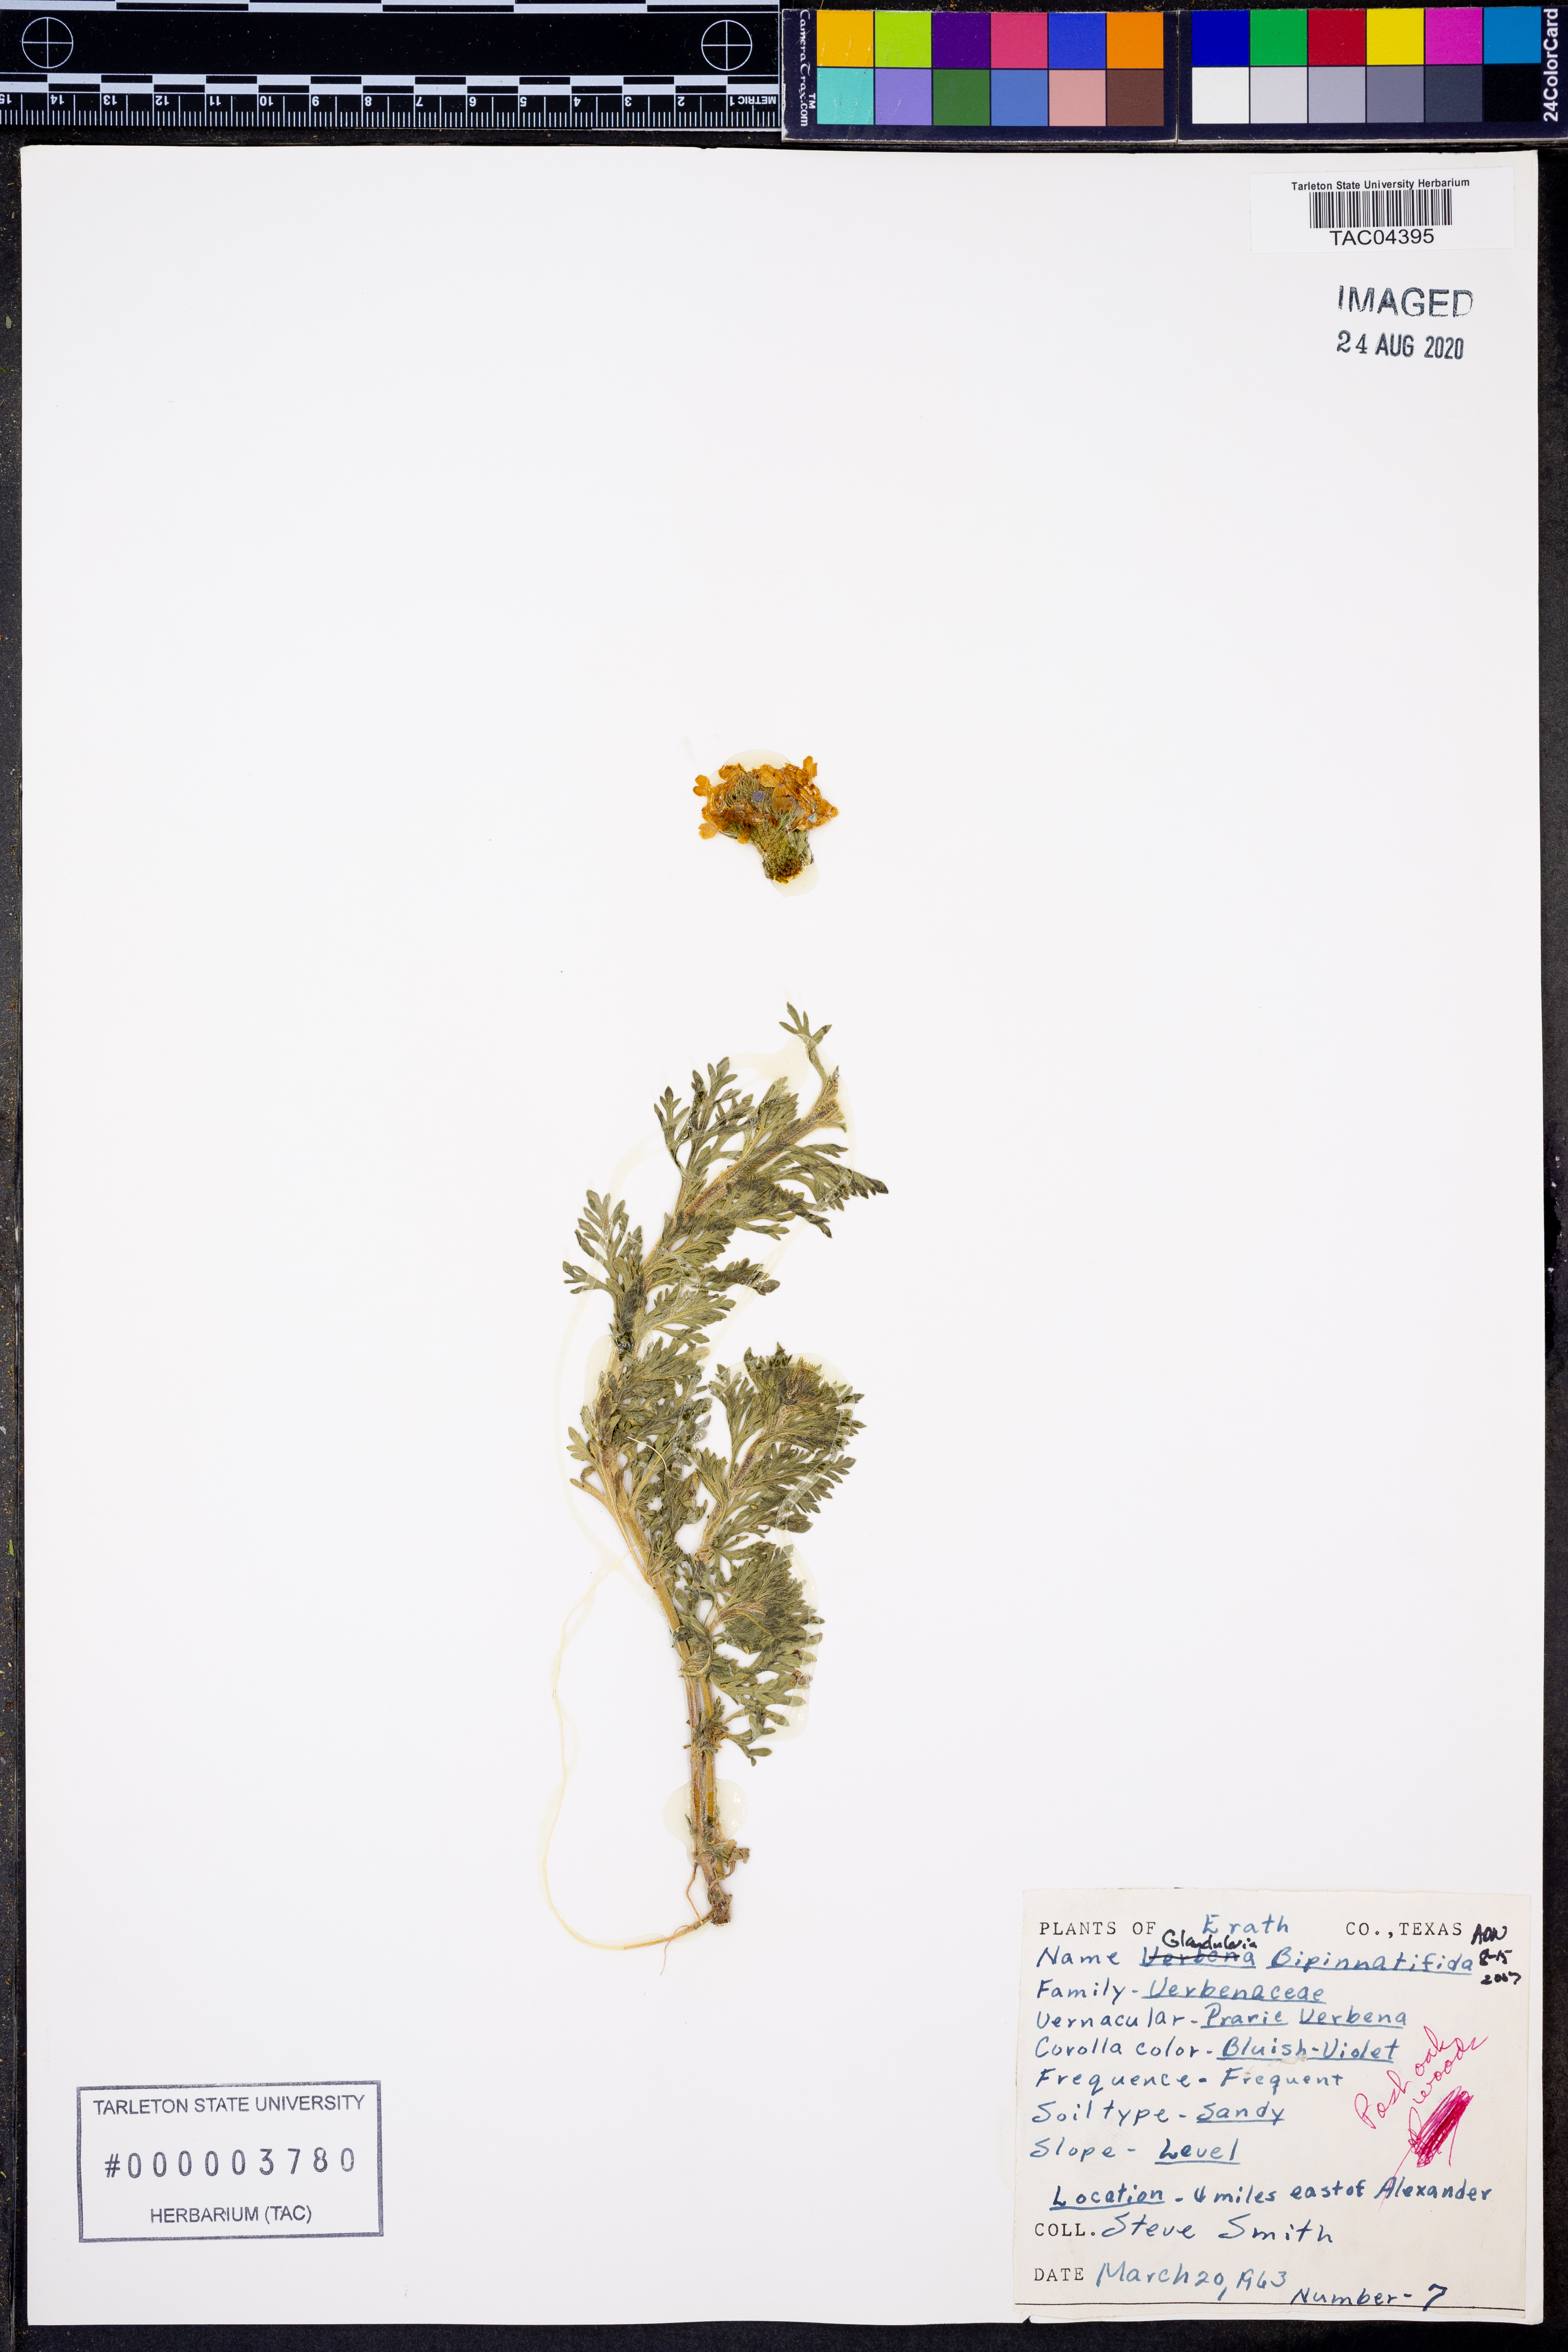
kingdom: Plantae
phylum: Tracheophyta
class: Magnoliopsida
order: Lamiales
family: Verbenaceae
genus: Verbena
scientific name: Verbena bipinnatifida
